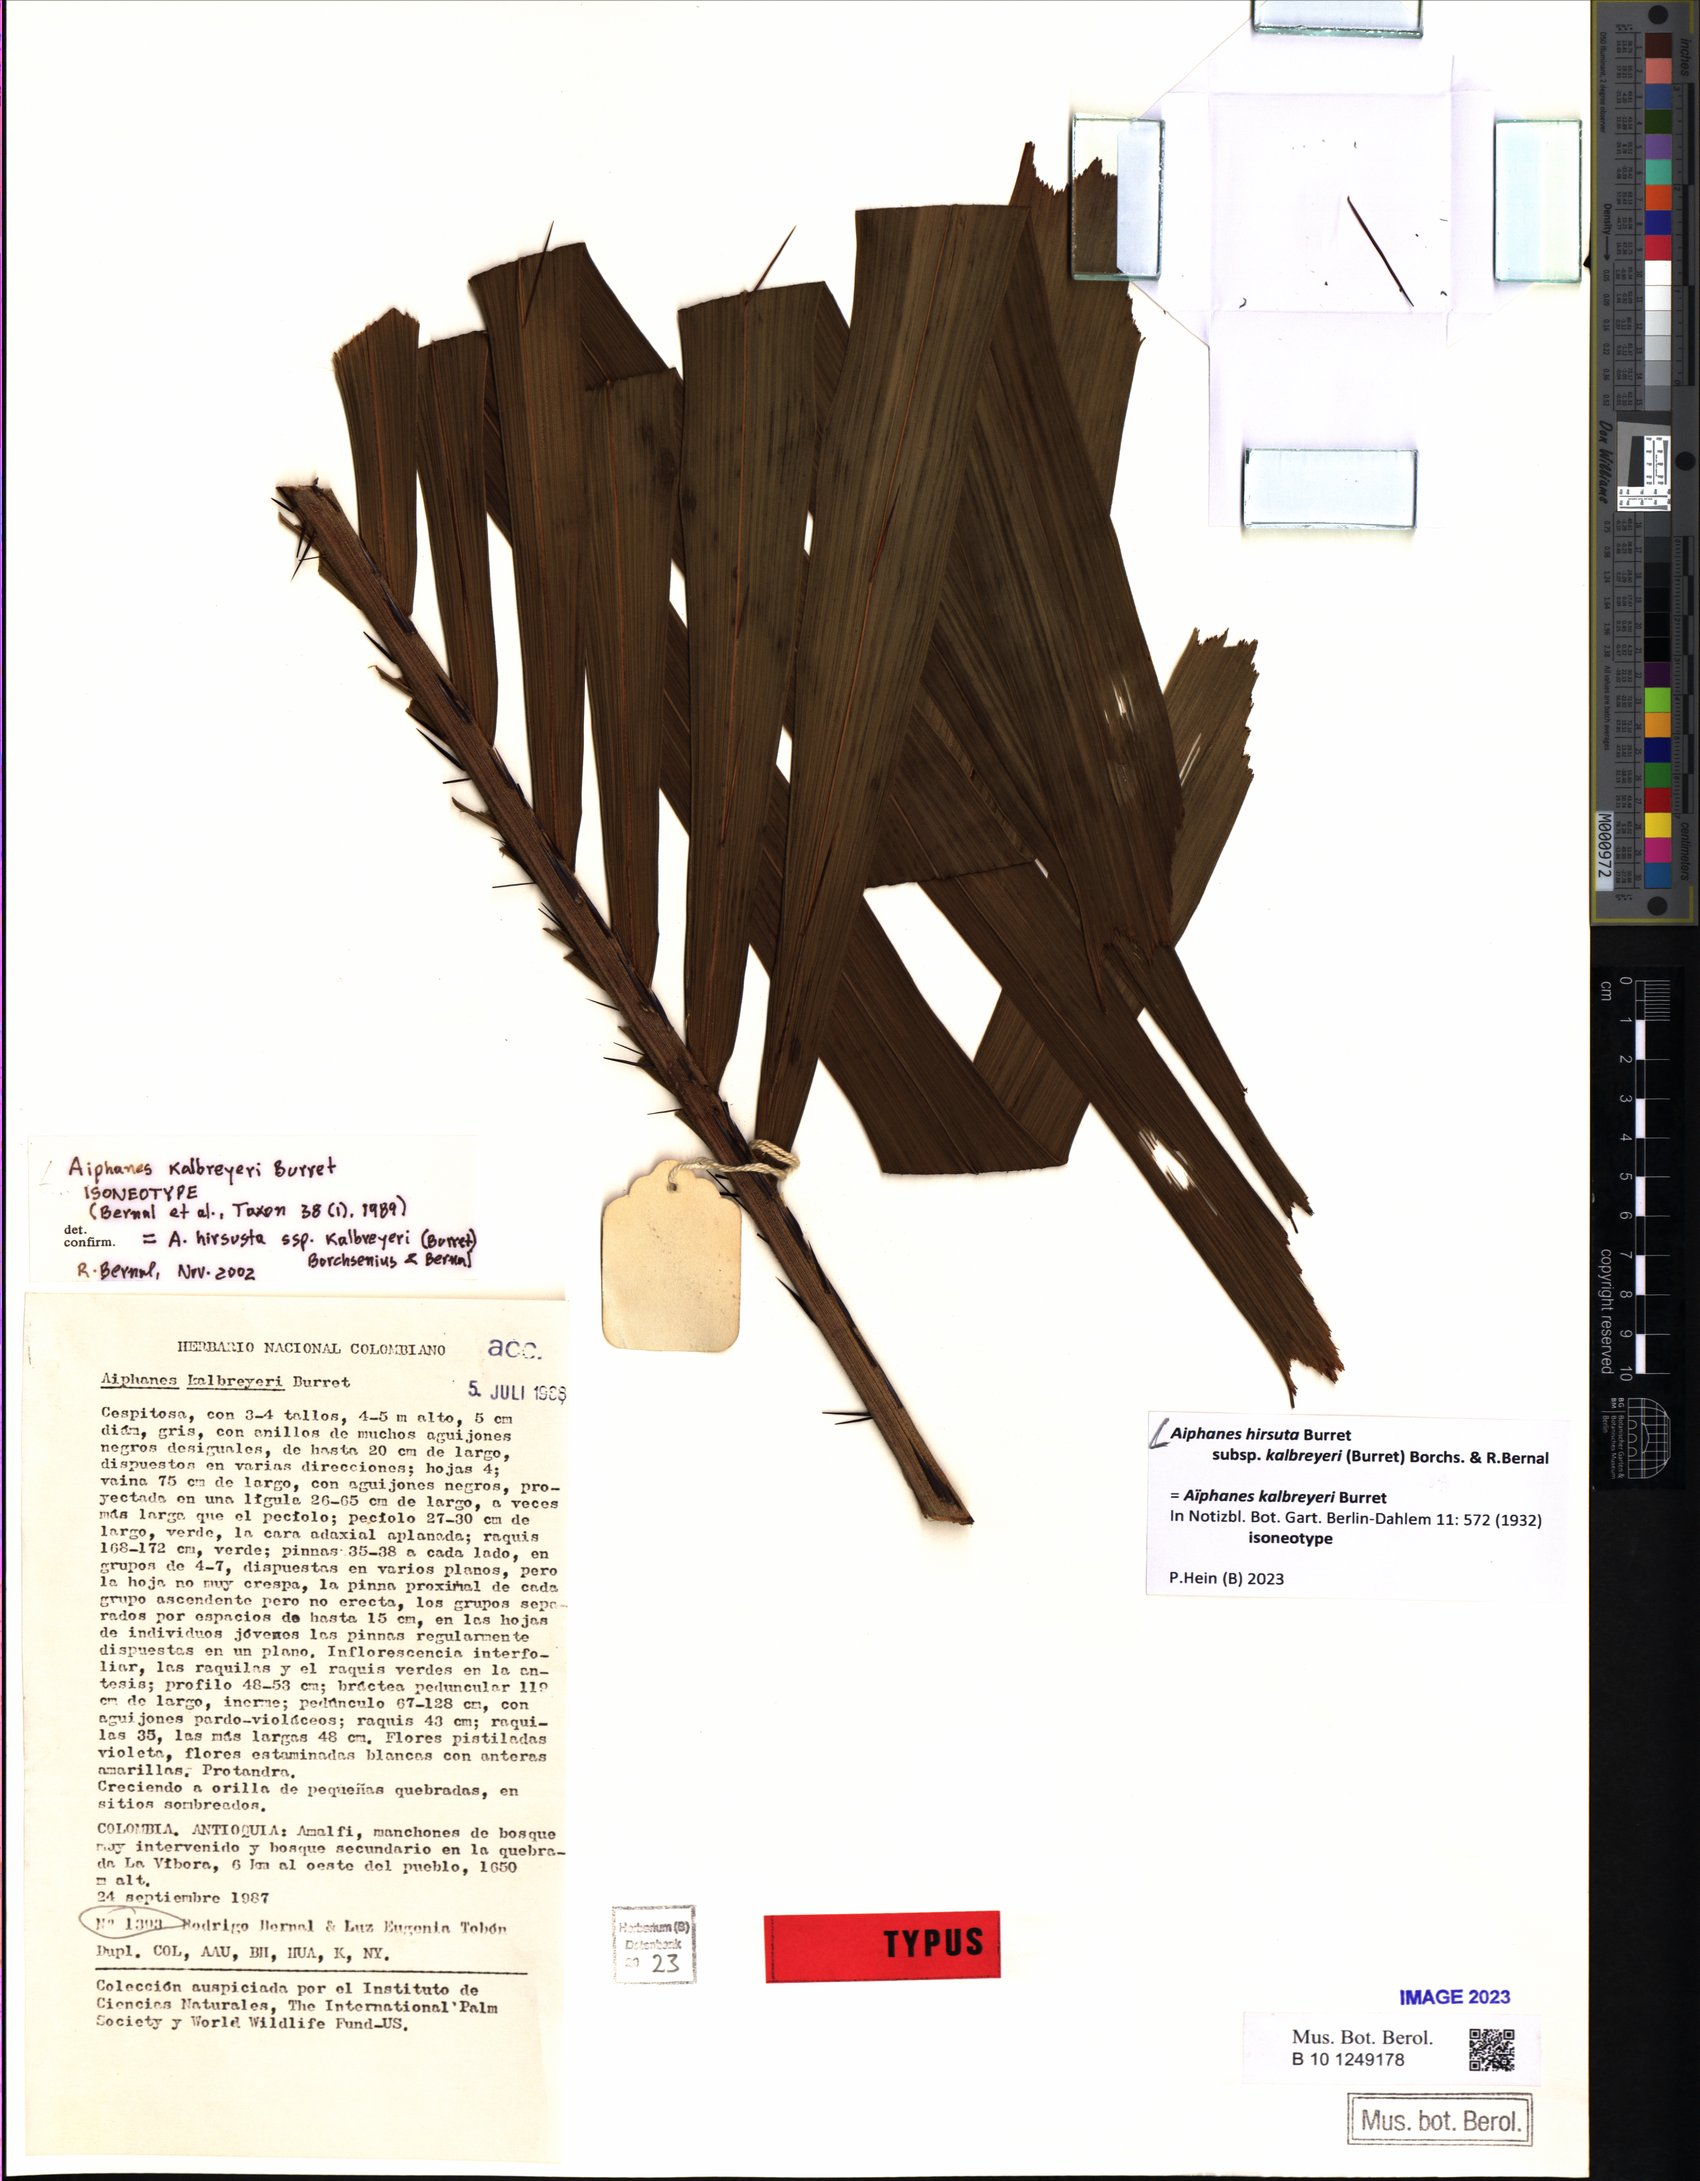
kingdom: Plantae
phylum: Tracheophyta
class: Liliopsida
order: Arecales
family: Arecaceae
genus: Aiphanes
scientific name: Aiphanes hirsuta
